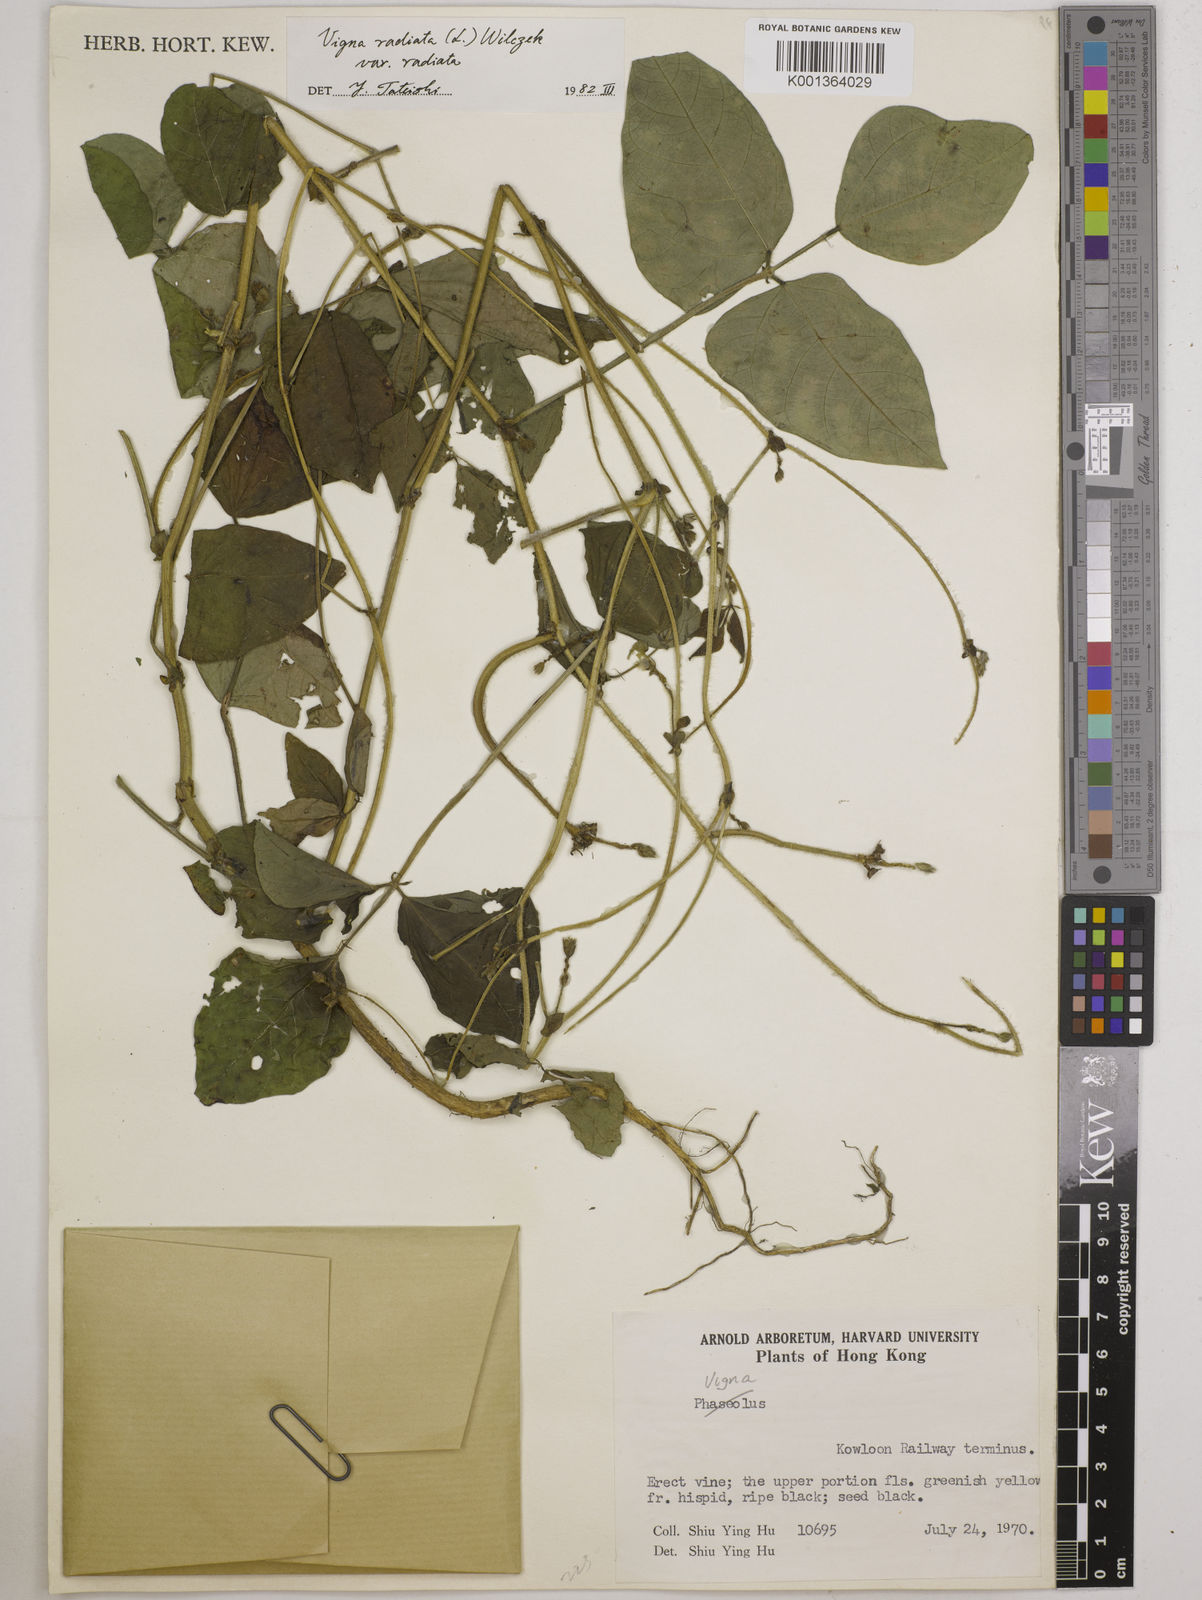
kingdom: Plantae
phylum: Tracheophyta
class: Magnoliopsida
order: Fabales
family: Fabaceae
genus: Vigna
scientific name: Vigna radiata
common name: Mung-bean
